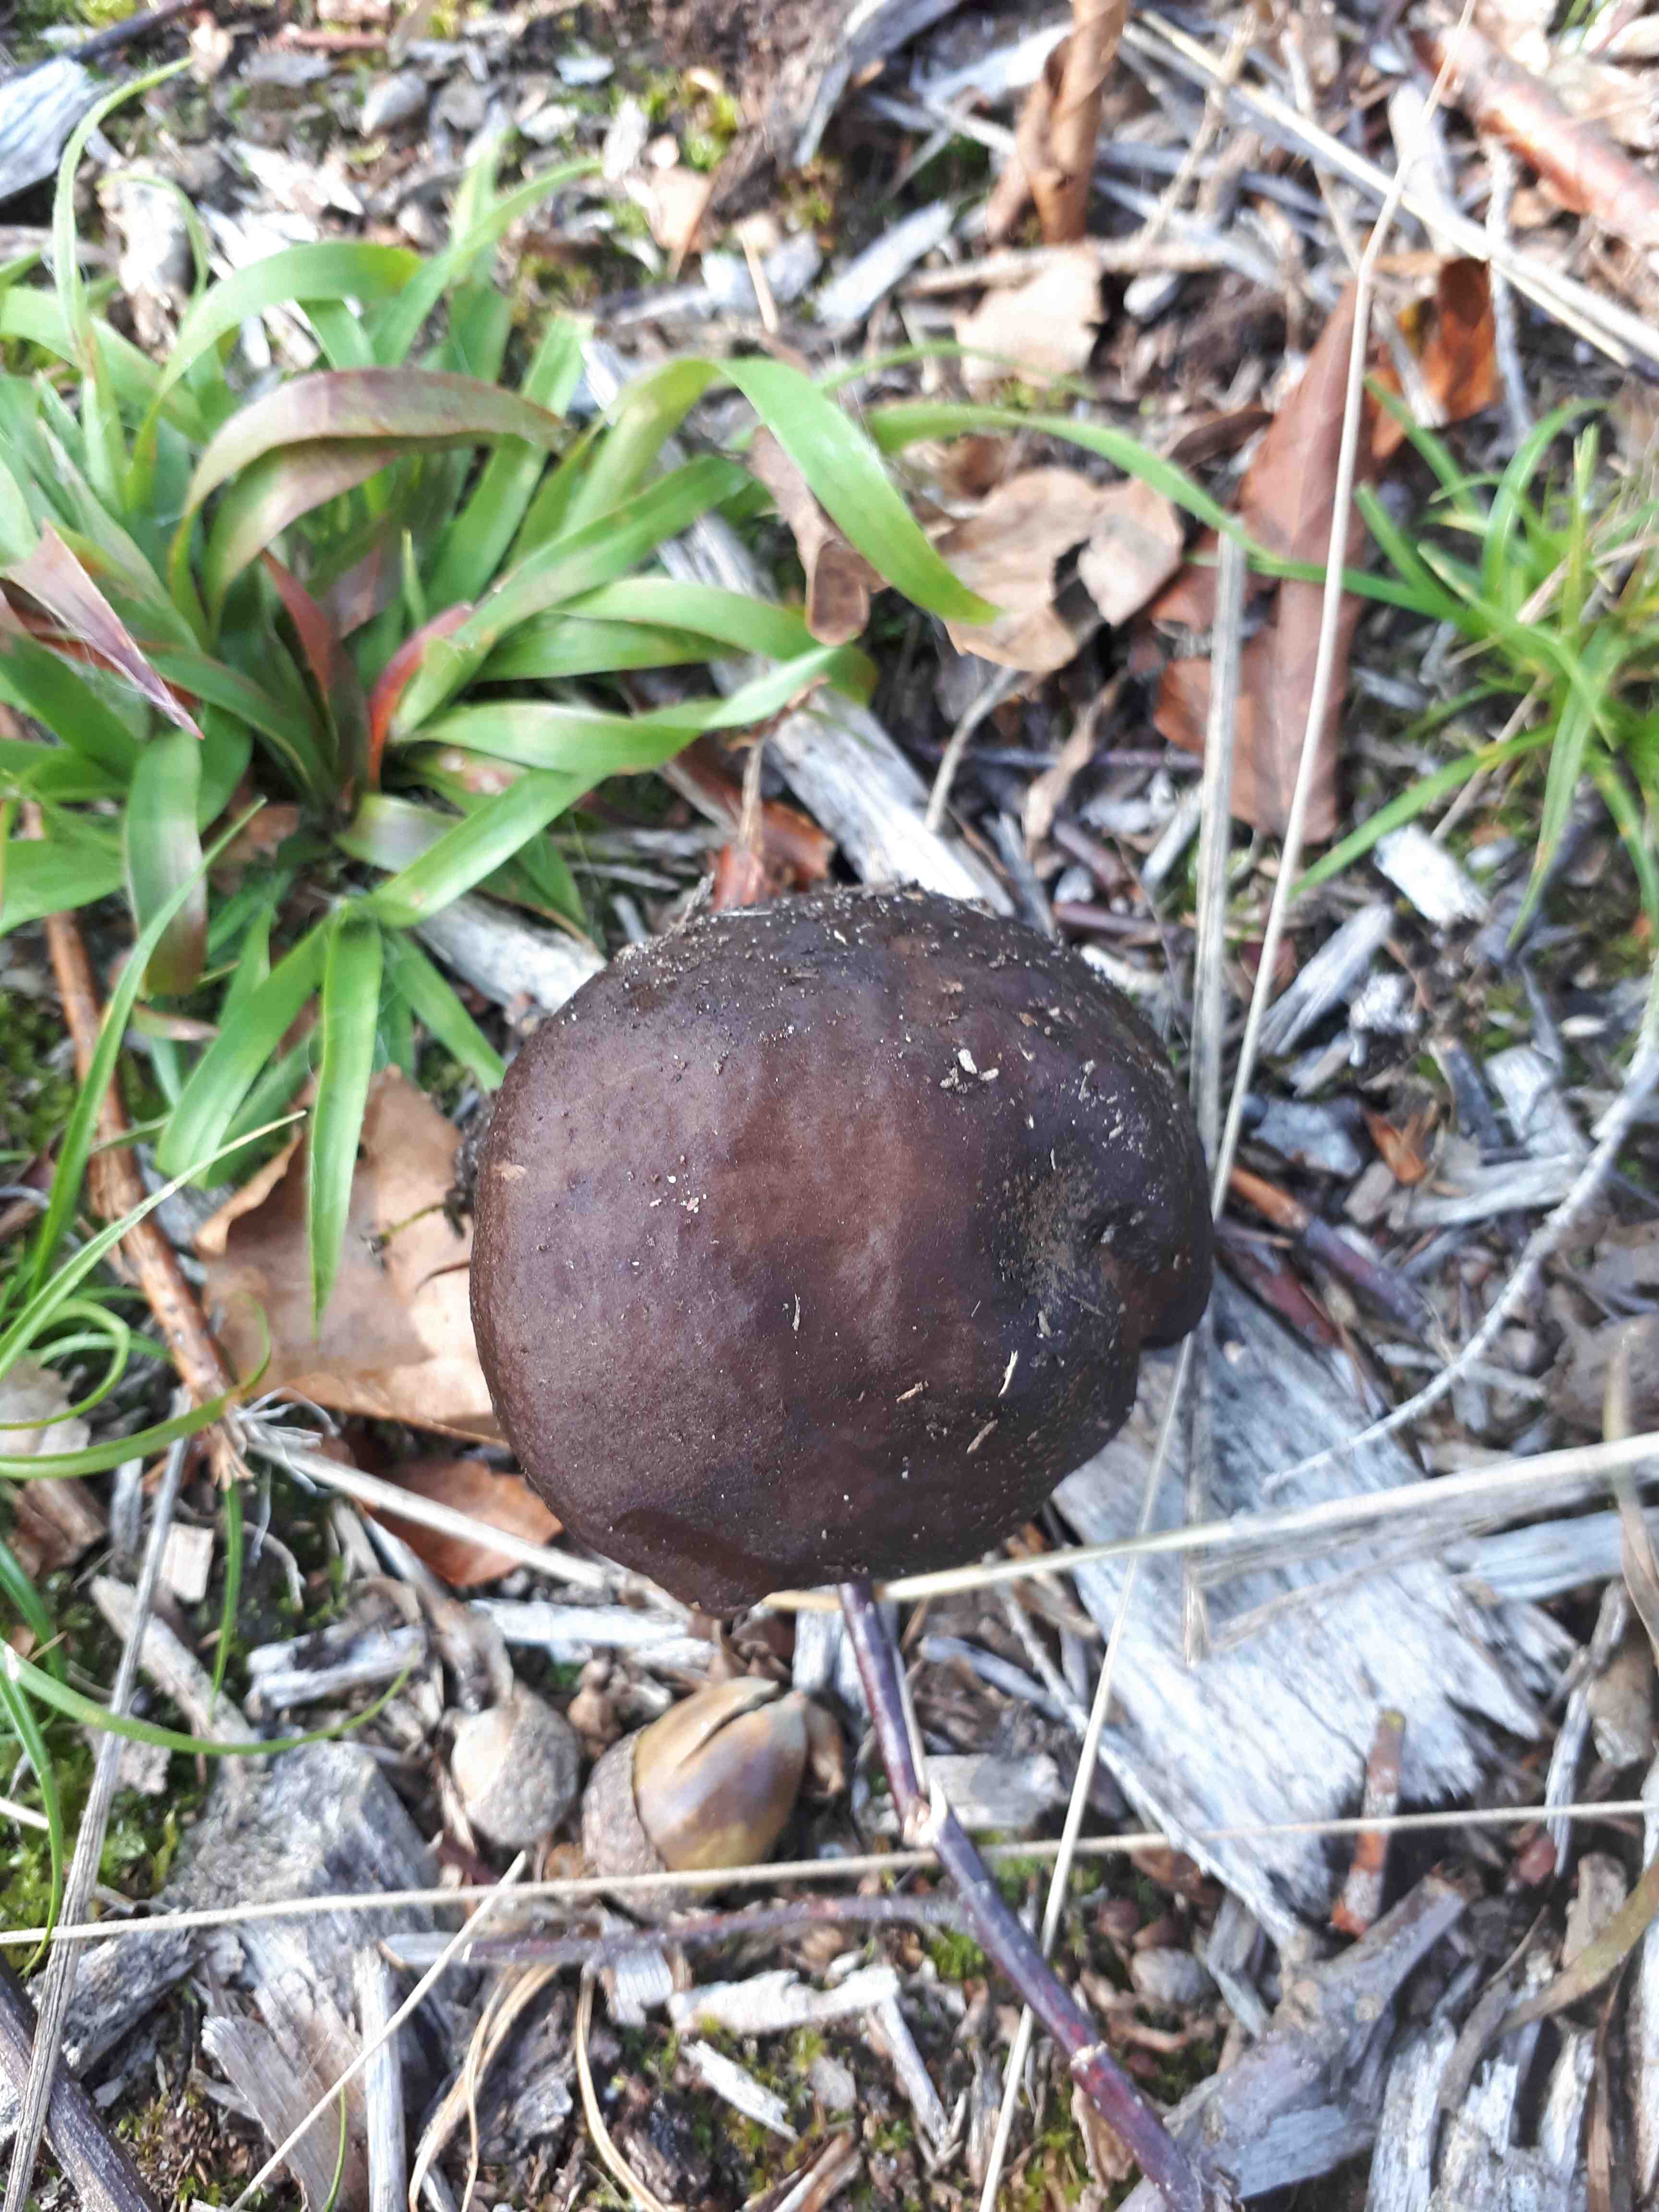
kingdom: Fungi
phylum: Basidiomycota
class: Agaricomycetes
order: Agaricales
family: Pluteaceae
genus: Pluteus
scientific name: Pluteus cervinus
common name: sodfarvet skærmhat
